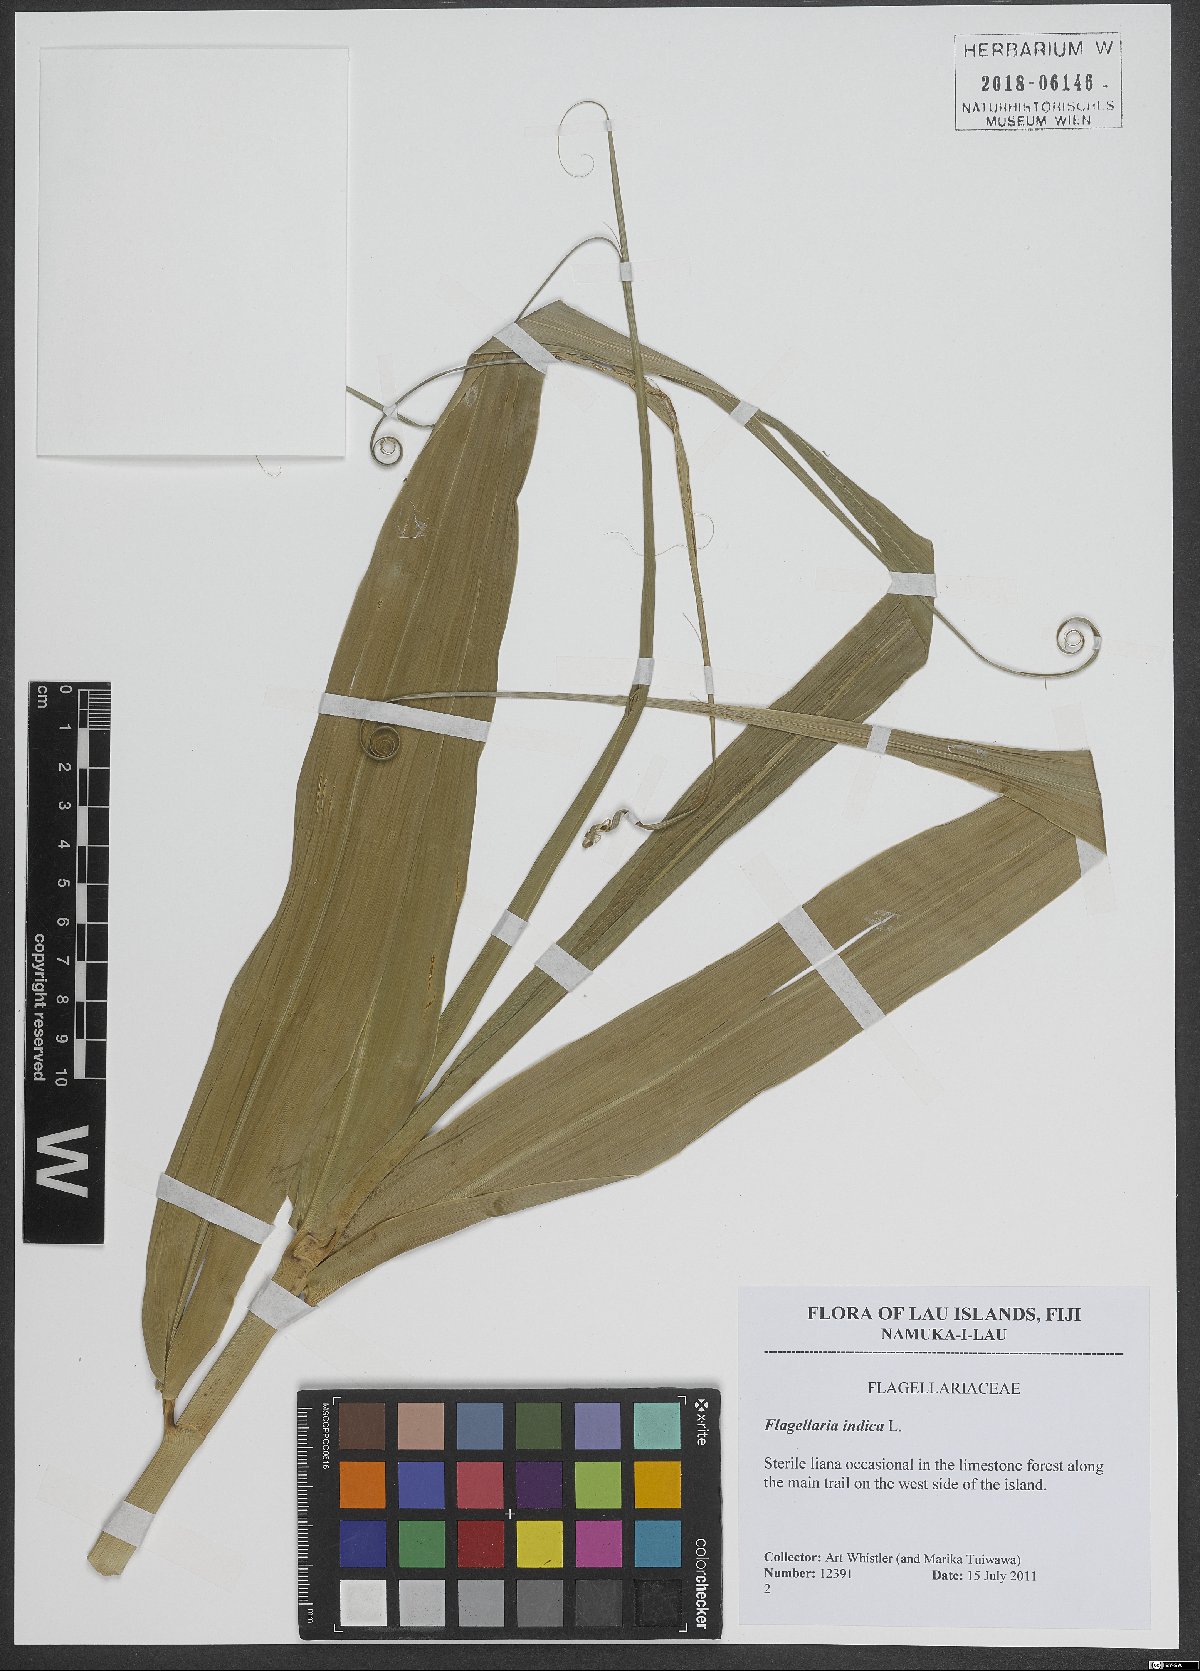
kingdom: Plantae
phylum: Tracheophyta
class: Liliopsida
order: Poales
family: Flagellariaceae
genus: Flagellaria
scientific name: Flagellaria indica
